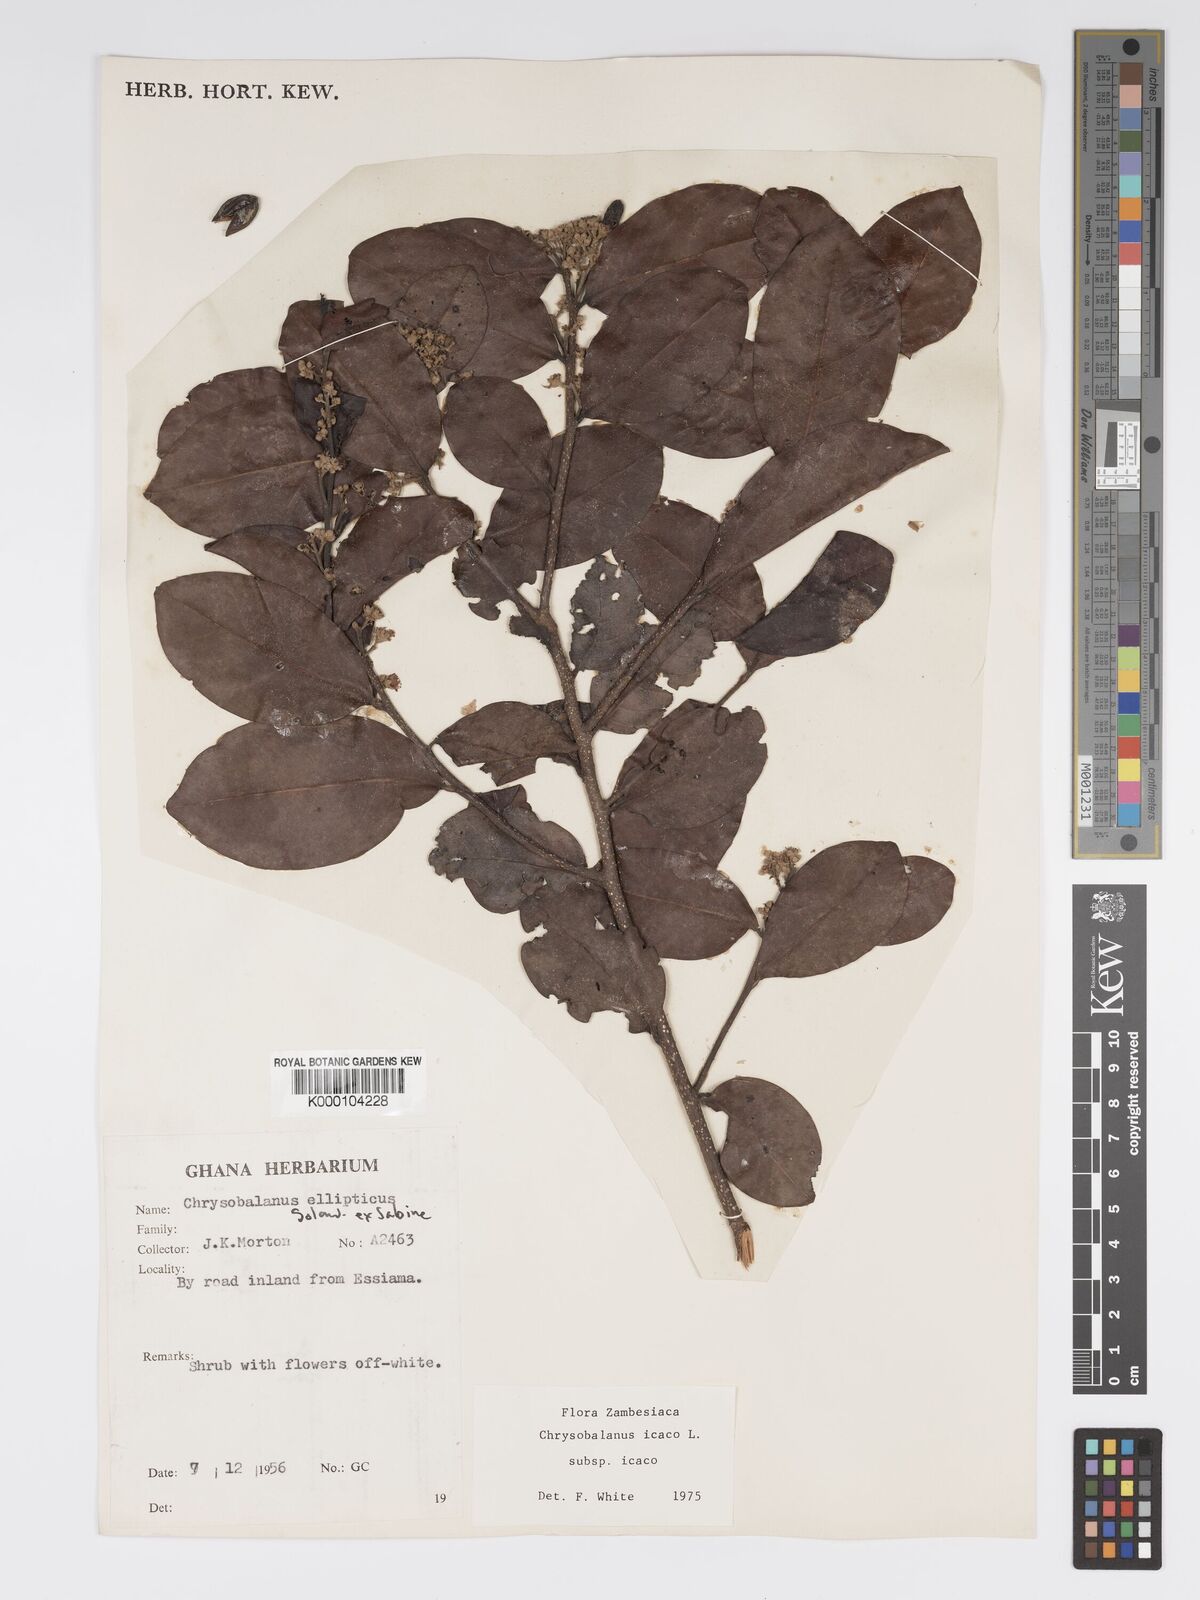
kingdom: Plantae
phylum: Tracheophyta
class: Magnoliopsida
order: Malpighiales
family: Chrysobalanaceae
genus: Chrysobalanus
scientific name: Chrysobalanus icaco
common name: Coco plum
